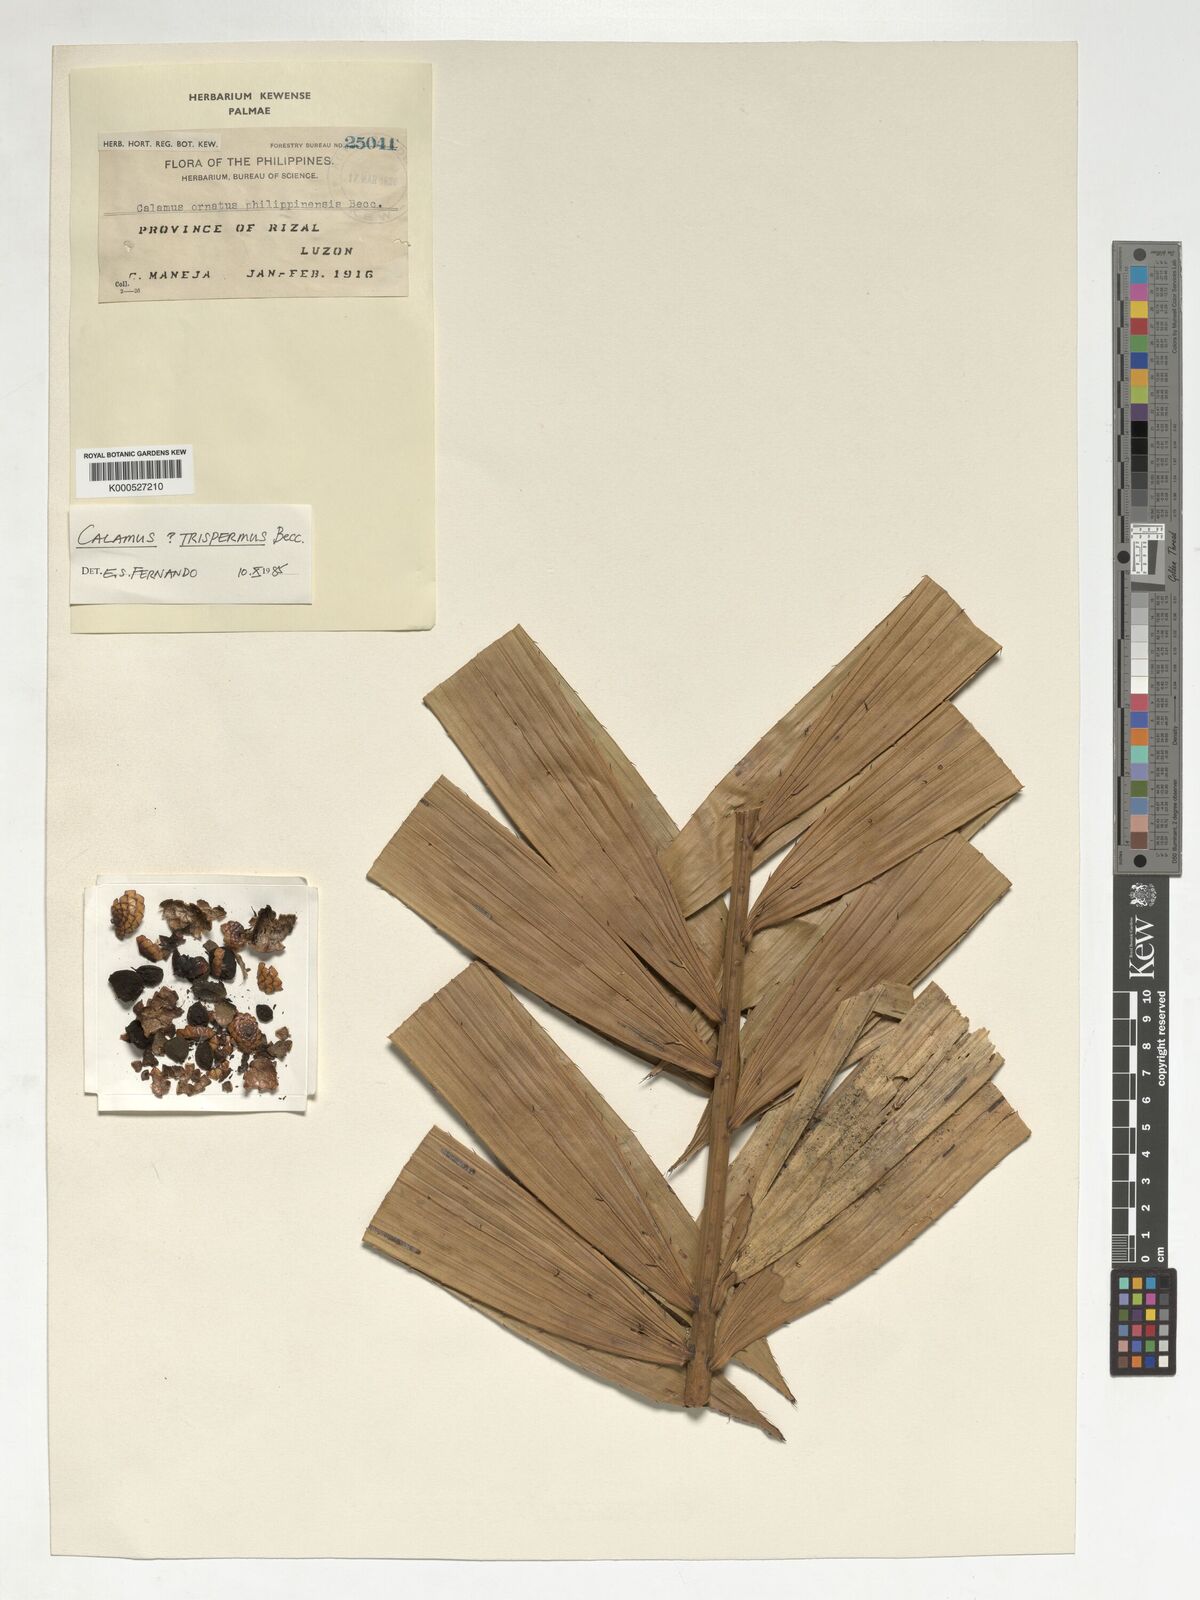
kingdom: Plantae
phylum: Tracheophyta
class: Liliopsida
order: Arecales
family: Arecaceae
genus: Calamus
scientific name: Calamus manillensis
